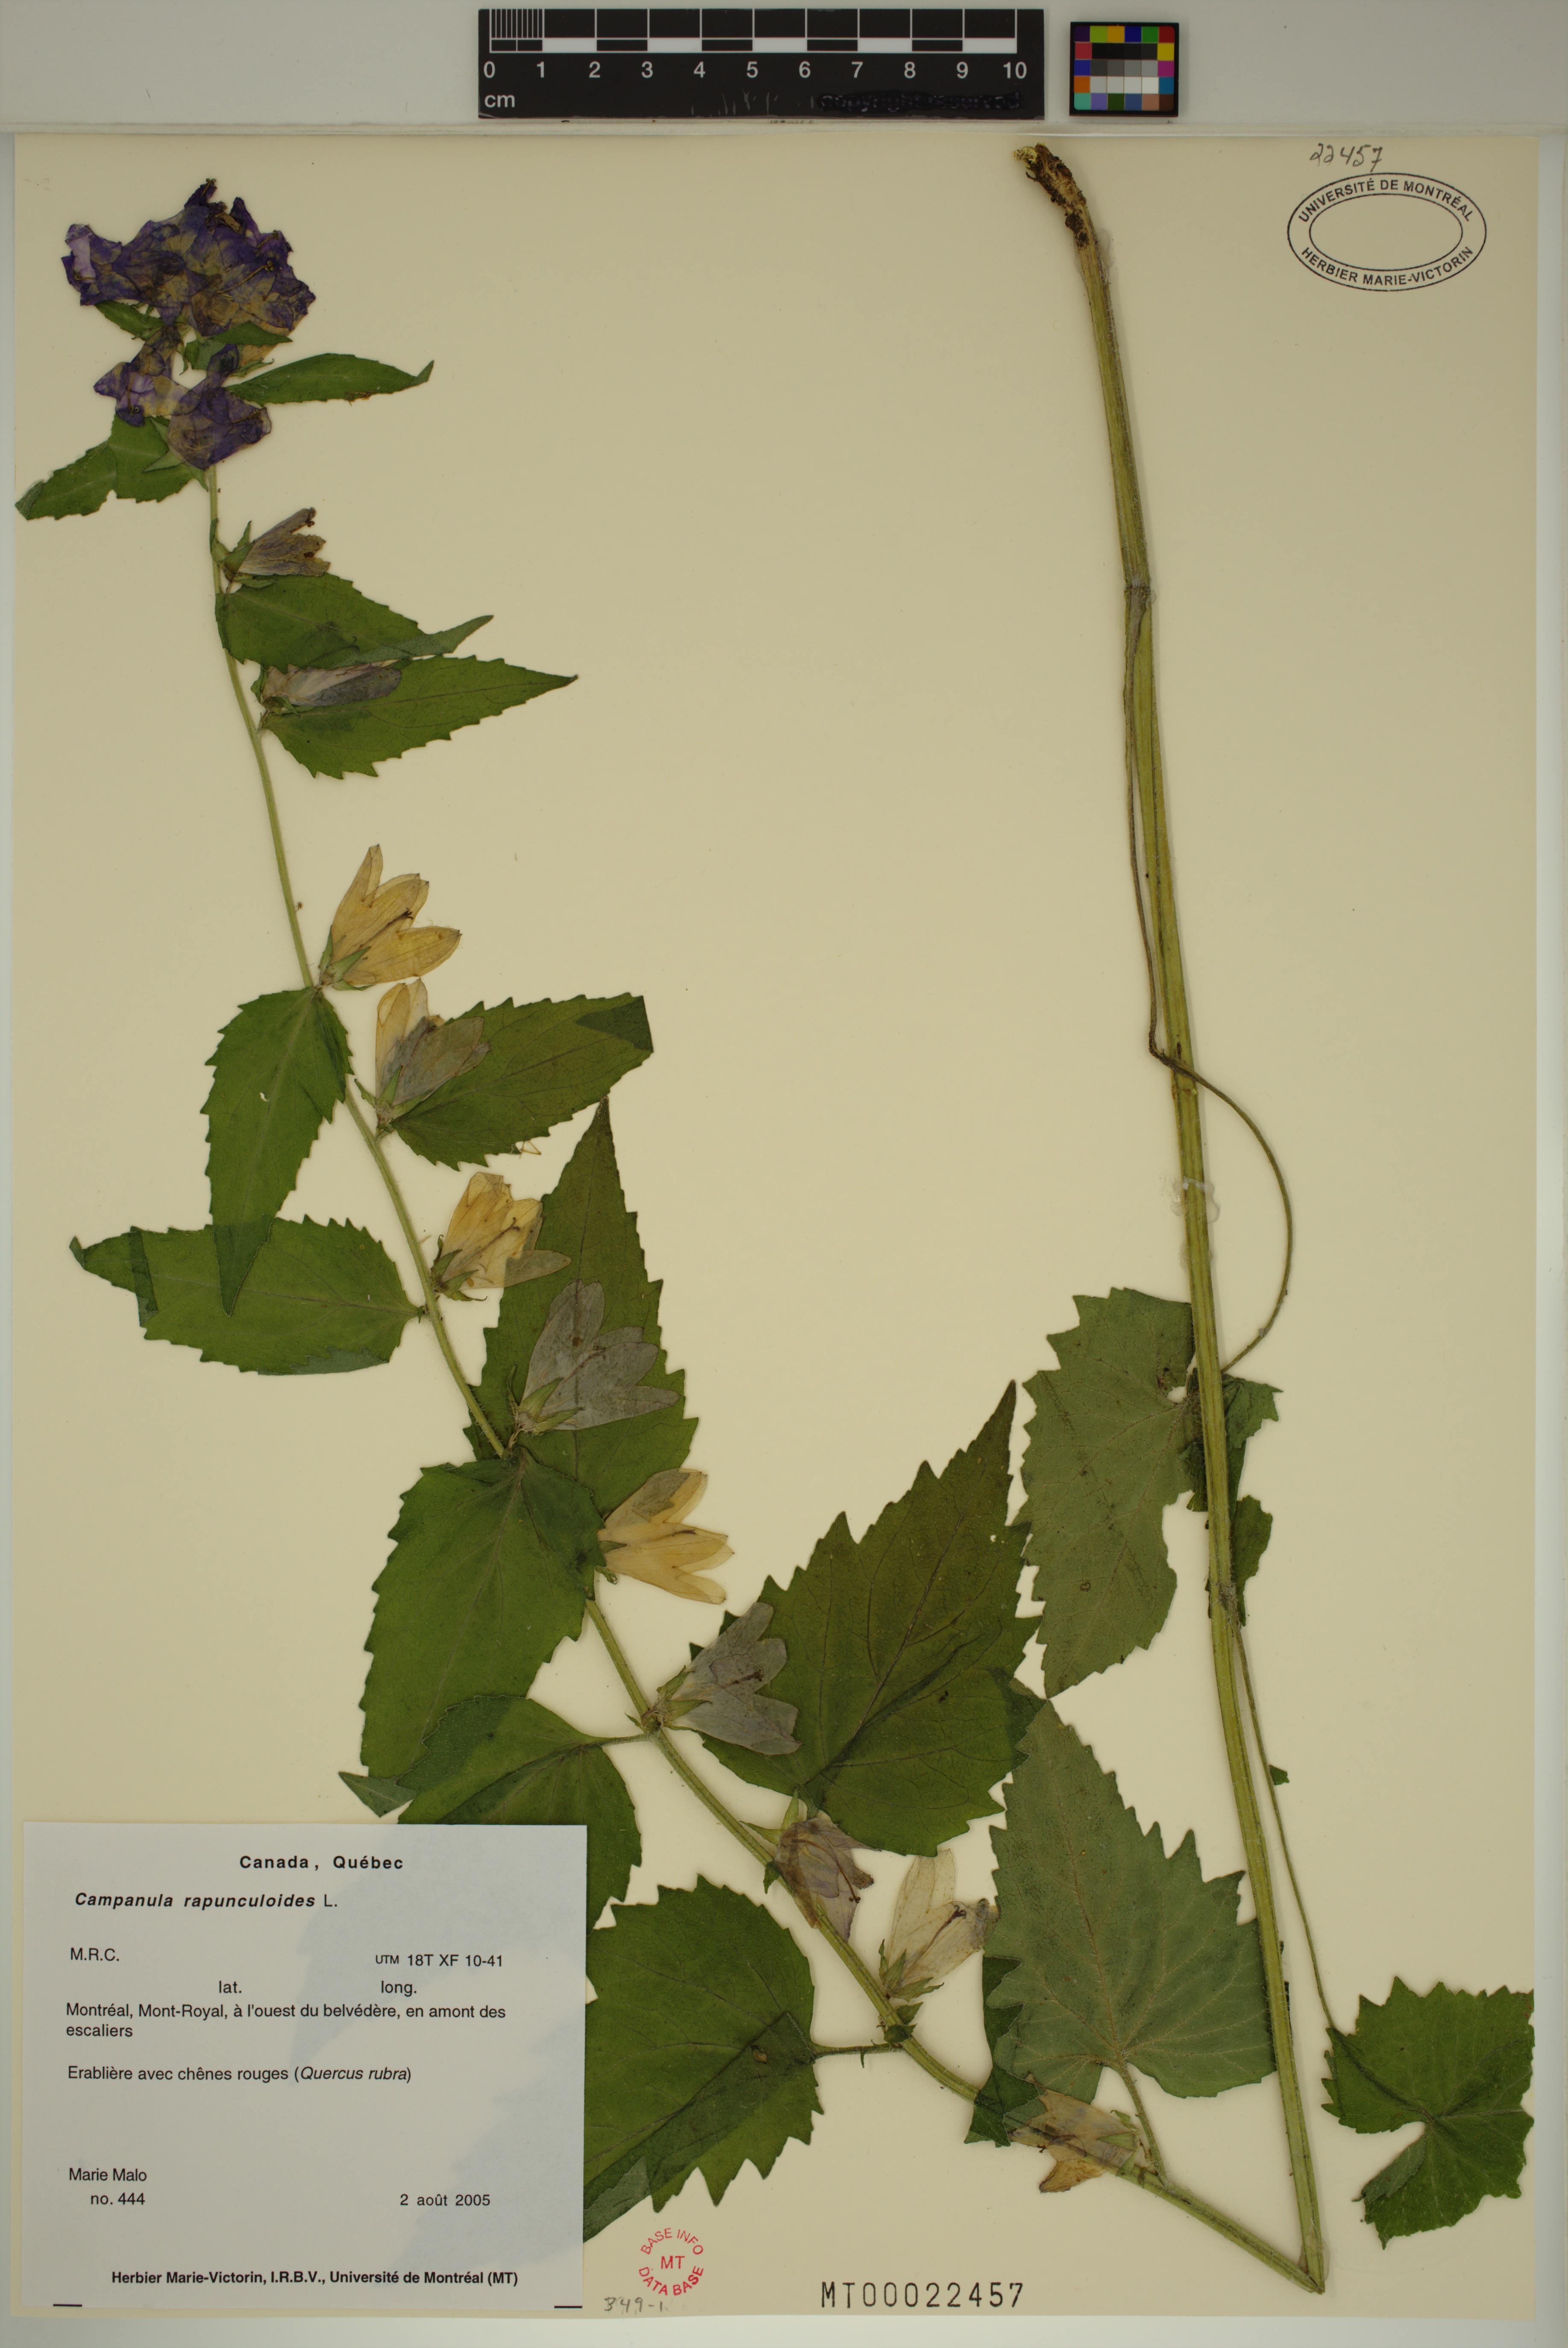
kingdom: Plantae
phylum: Tracheophyta
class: Magnoliopsida
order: Asterales
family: Campanulaceae
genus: Campanula
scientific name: Campanula rapunculoides
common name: Creeping bellflower
